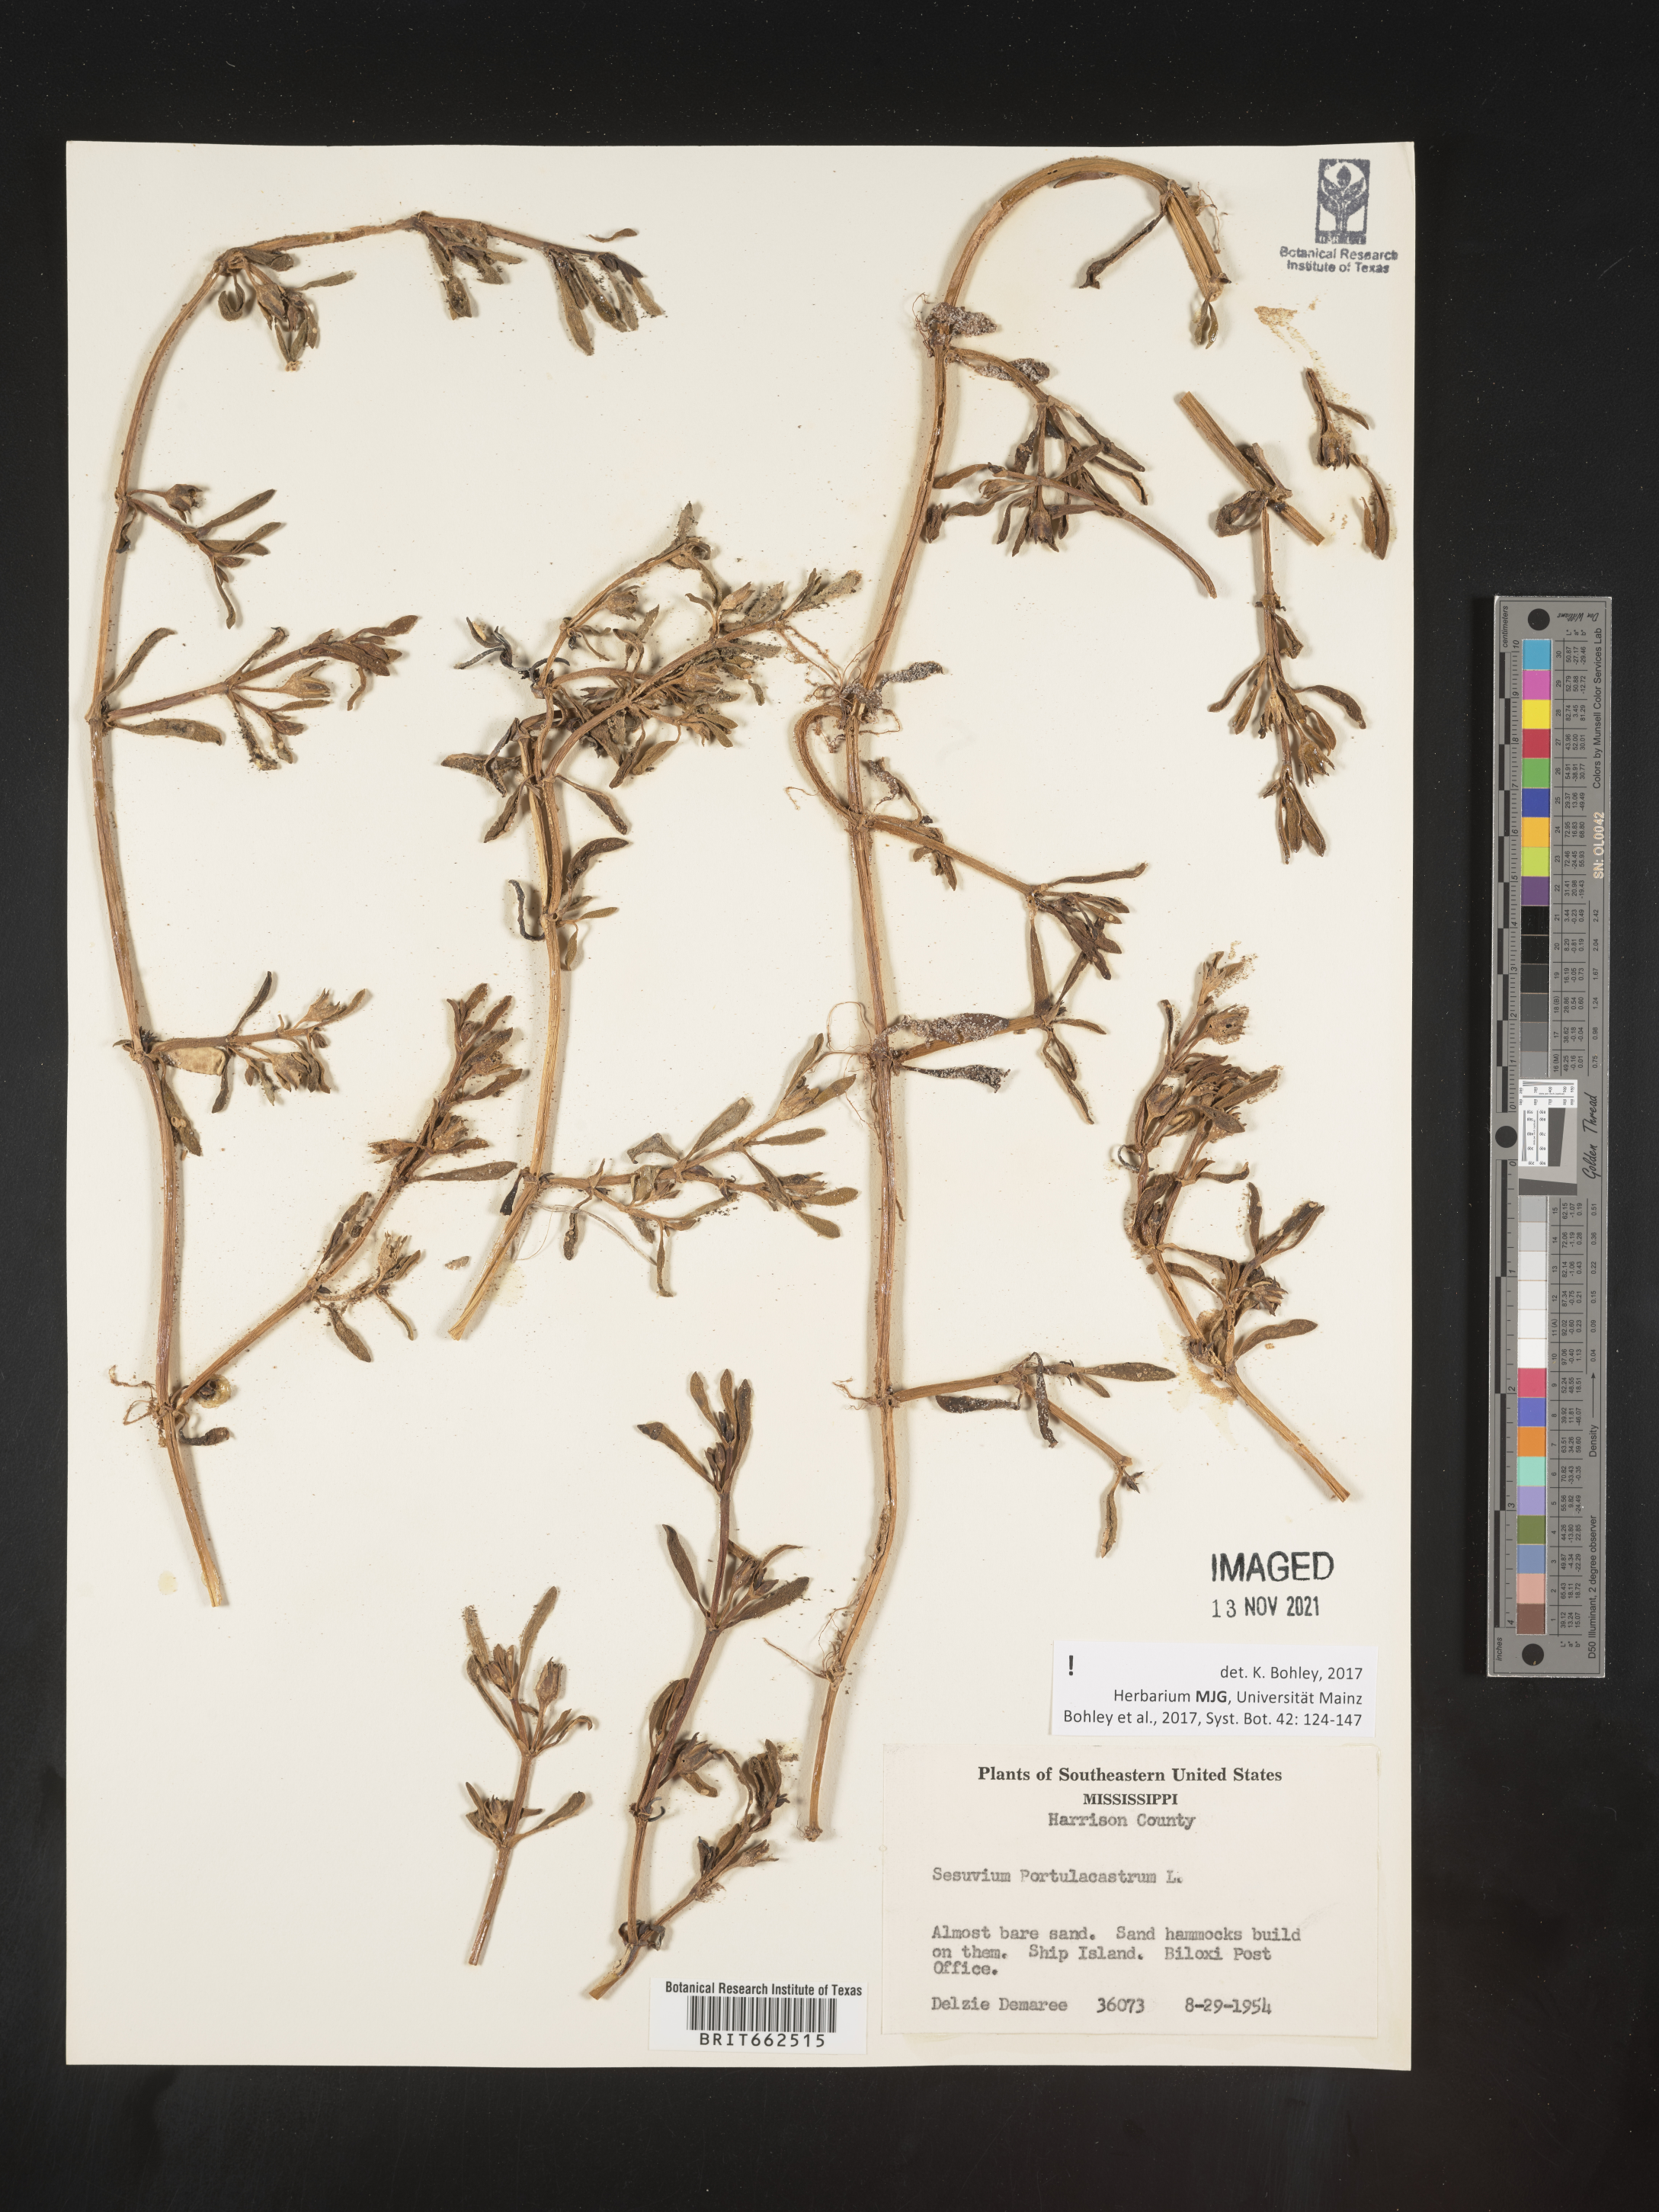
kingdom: Plantae
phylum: Tracheophyta
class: Magnoliopsida
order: Caryophyllales
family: Aizoaceae
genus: Sesuvium
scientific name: Sesuvium portulacastrum
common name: Sea-purslane
